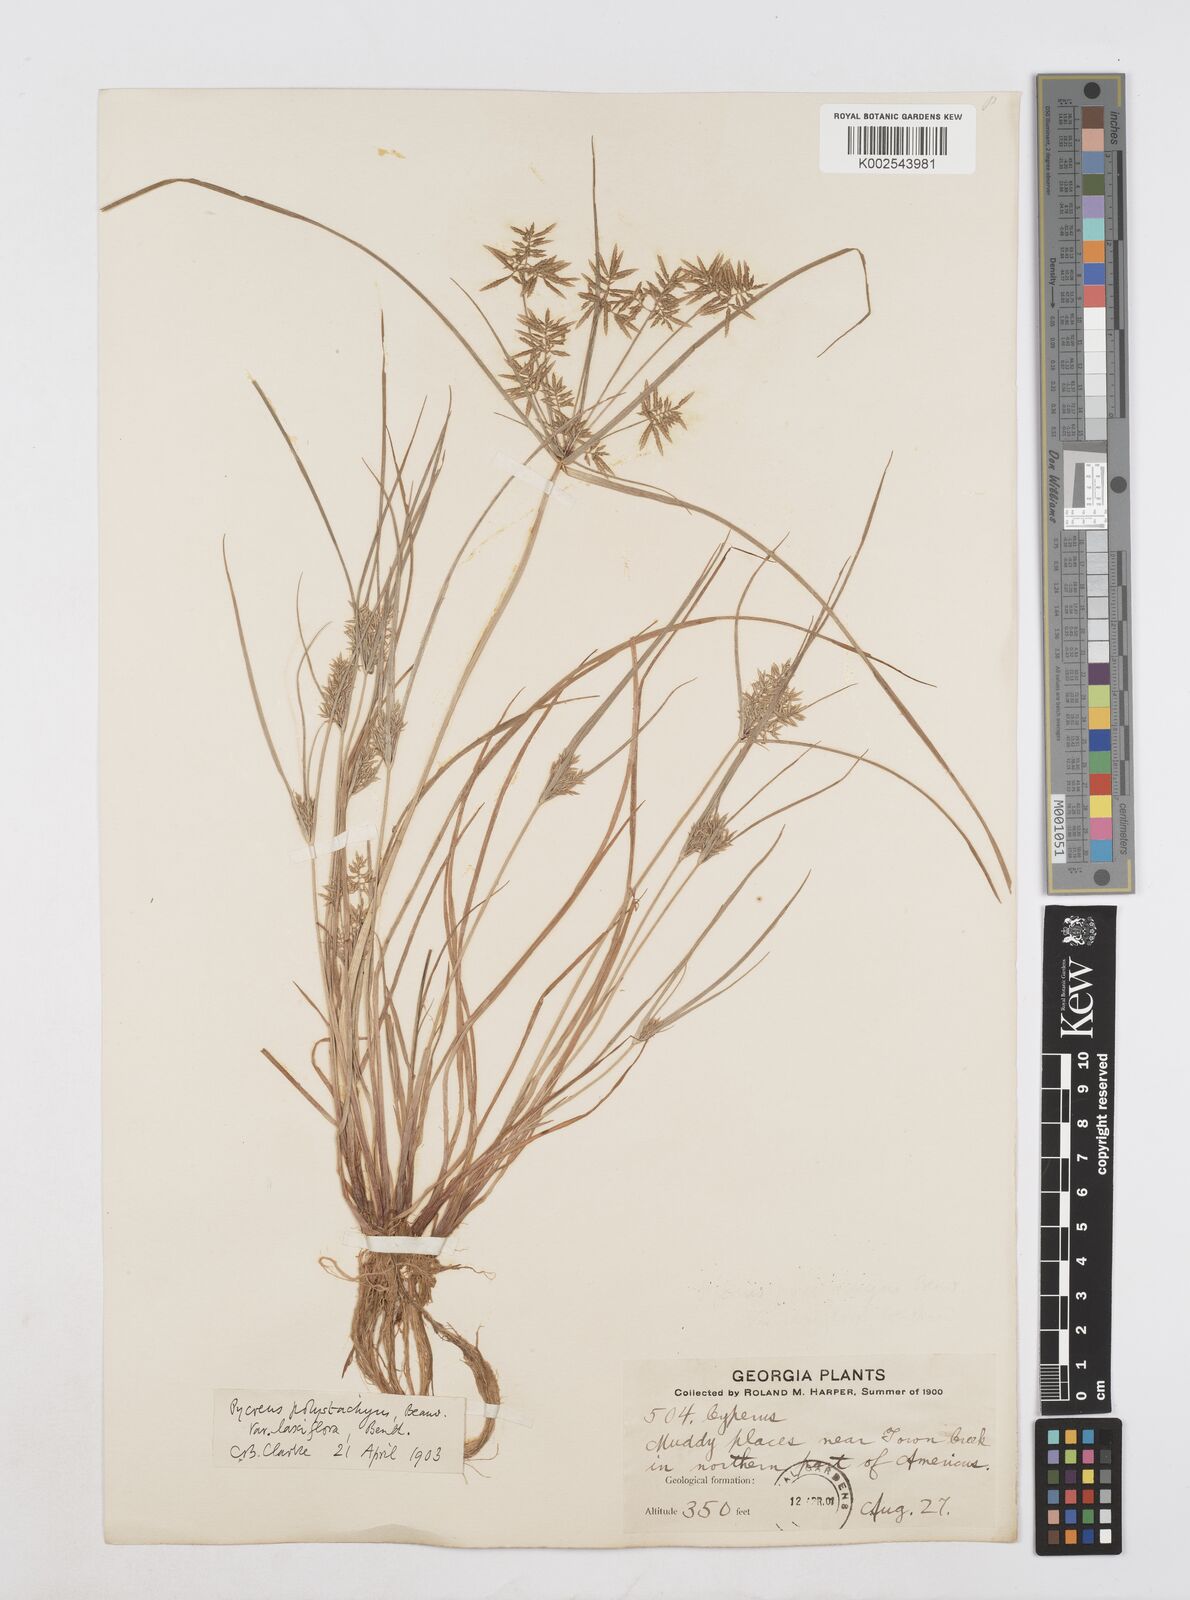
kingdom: Plantae
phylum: Tracheophyta
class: Liliopsida
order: Poales
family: Cyperaceae
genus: Cyperus
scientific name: Cyperus polystachyos
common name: Bunchy flat sedge
